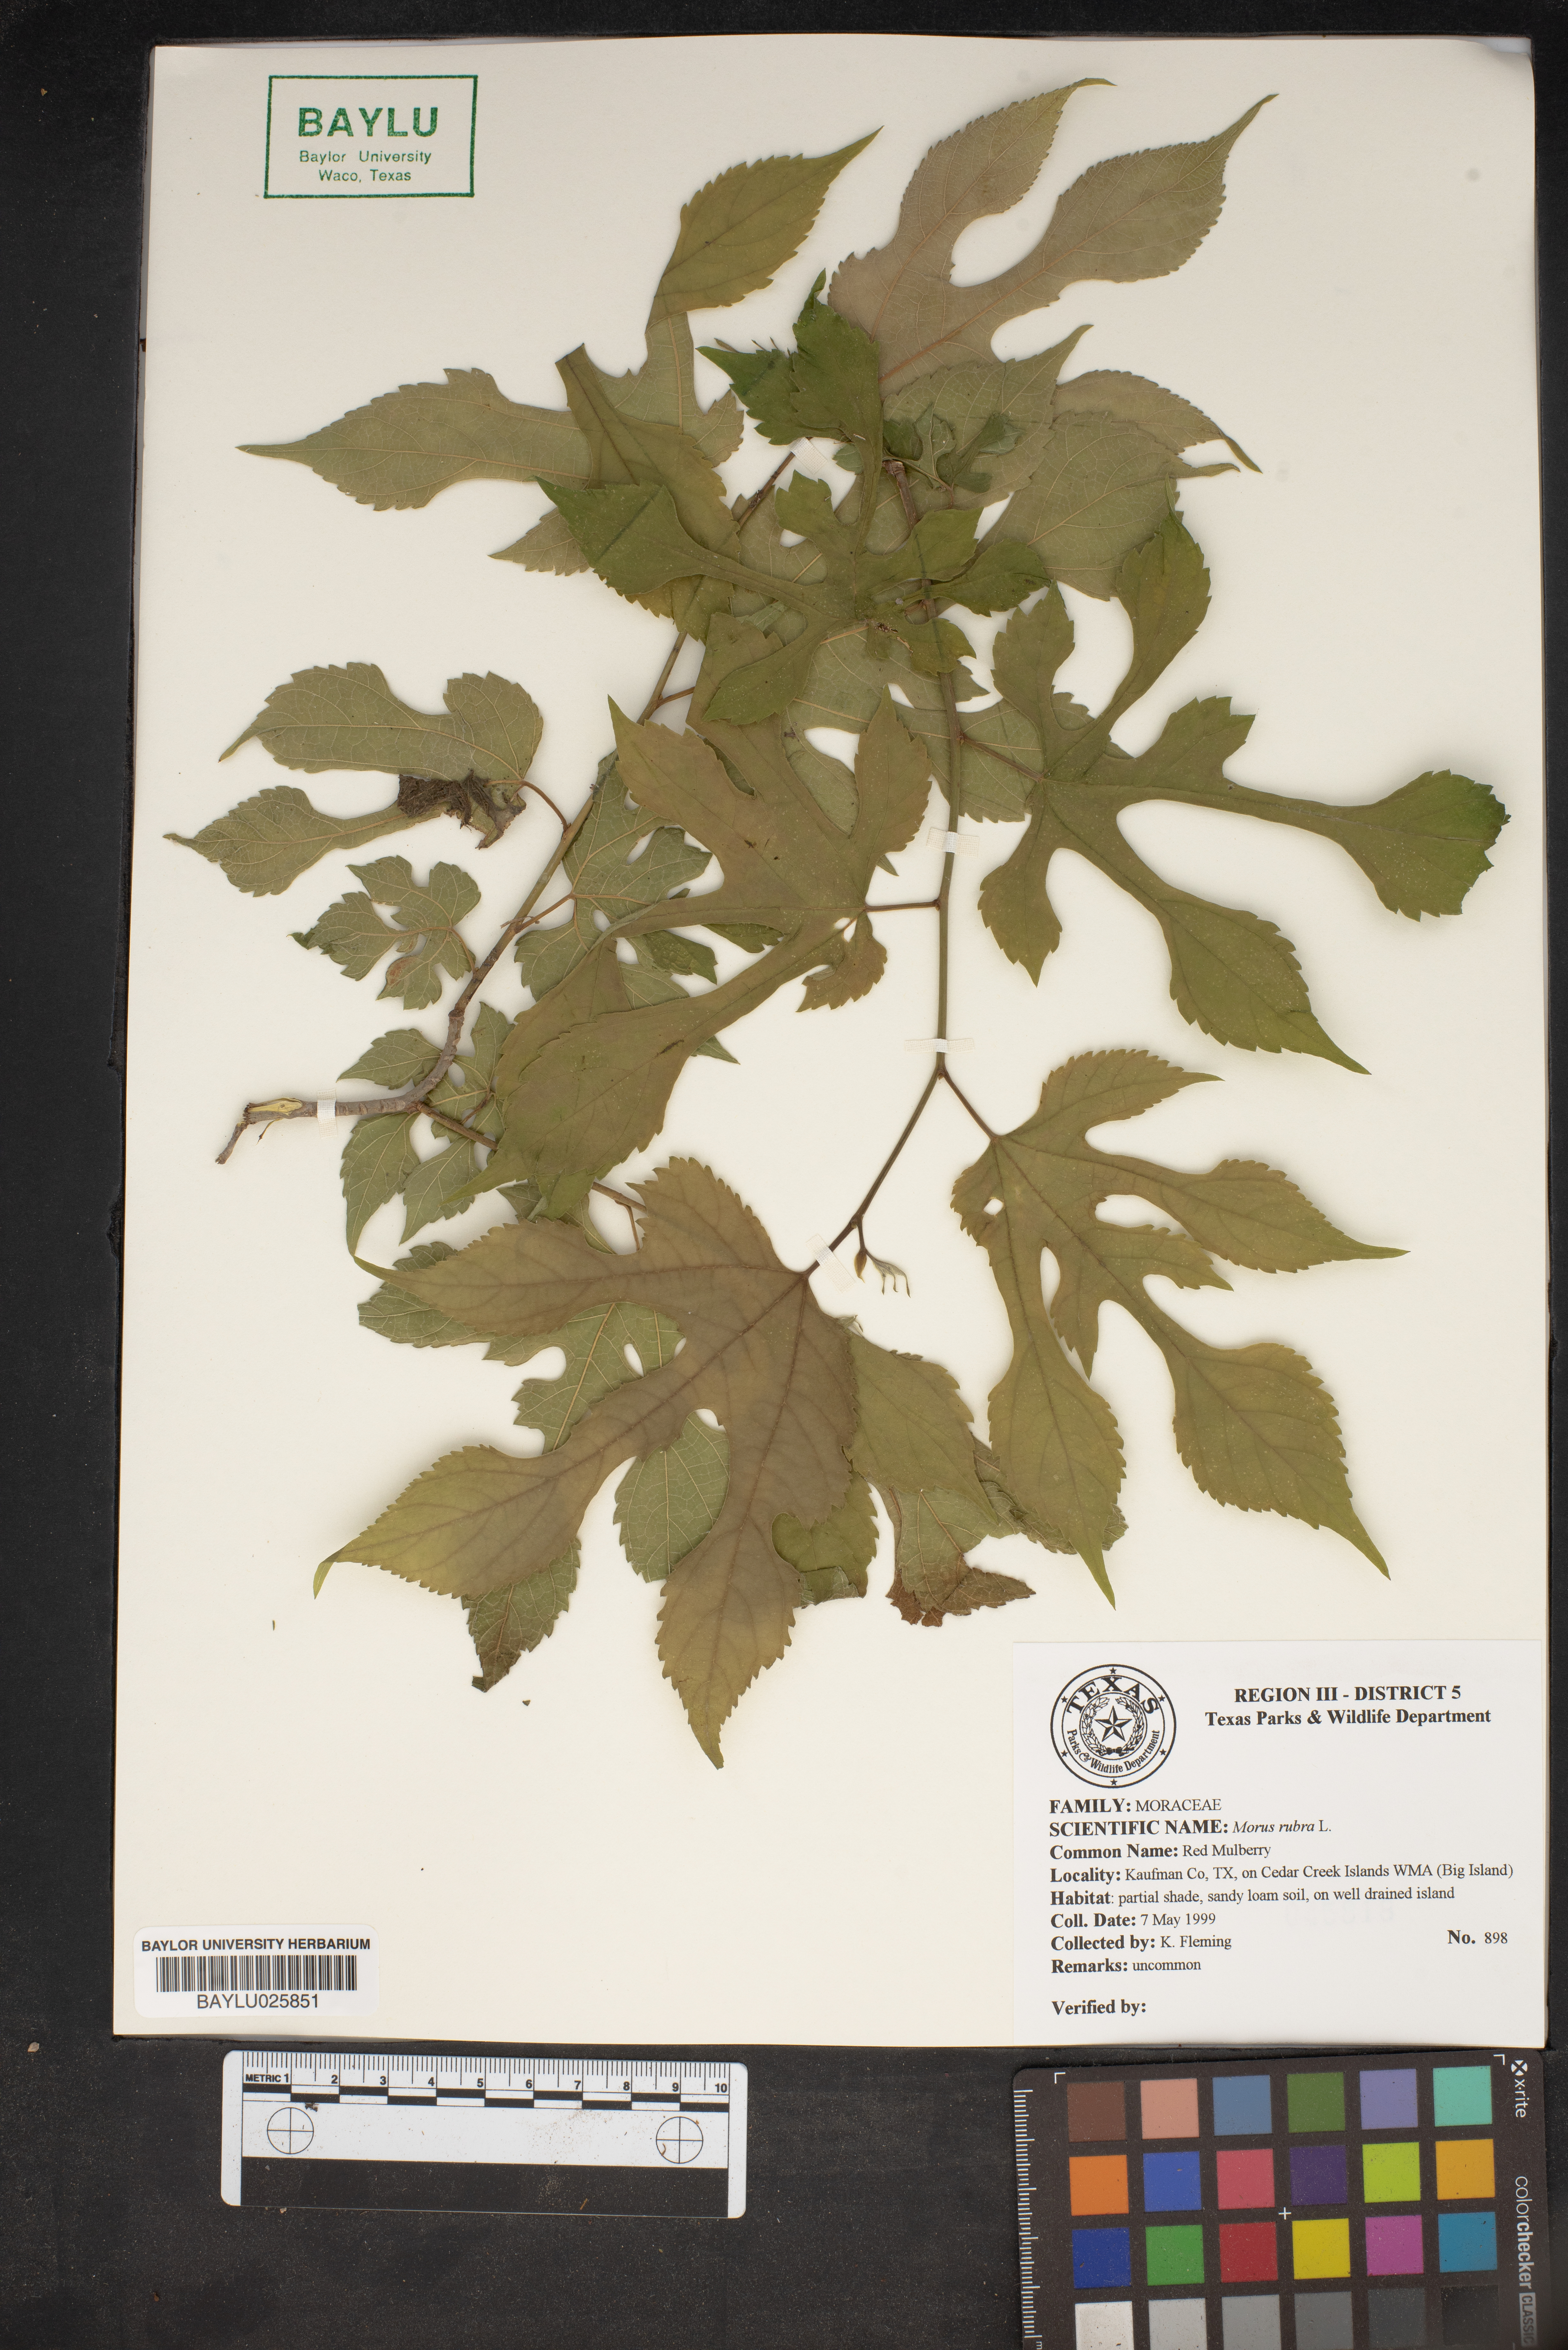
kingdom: Plantae
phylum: Tracheophyta
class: Magnoliopsida
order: Rosales
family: Moraceae
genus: Morus
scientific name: Morus rubra
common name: Red mulberry
